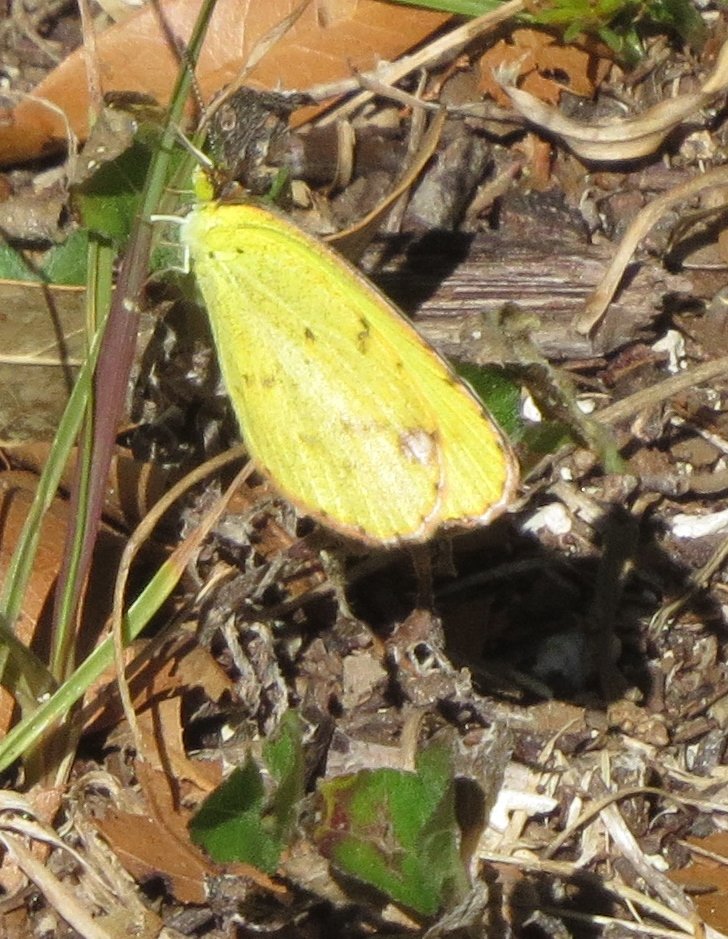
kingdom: Animalia
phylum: Arthropoda
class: Insecta
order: Lepidoptera
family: Pieridae
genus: Pyrisitia
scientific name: Pyrisitia lisa
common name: Little Yellow
